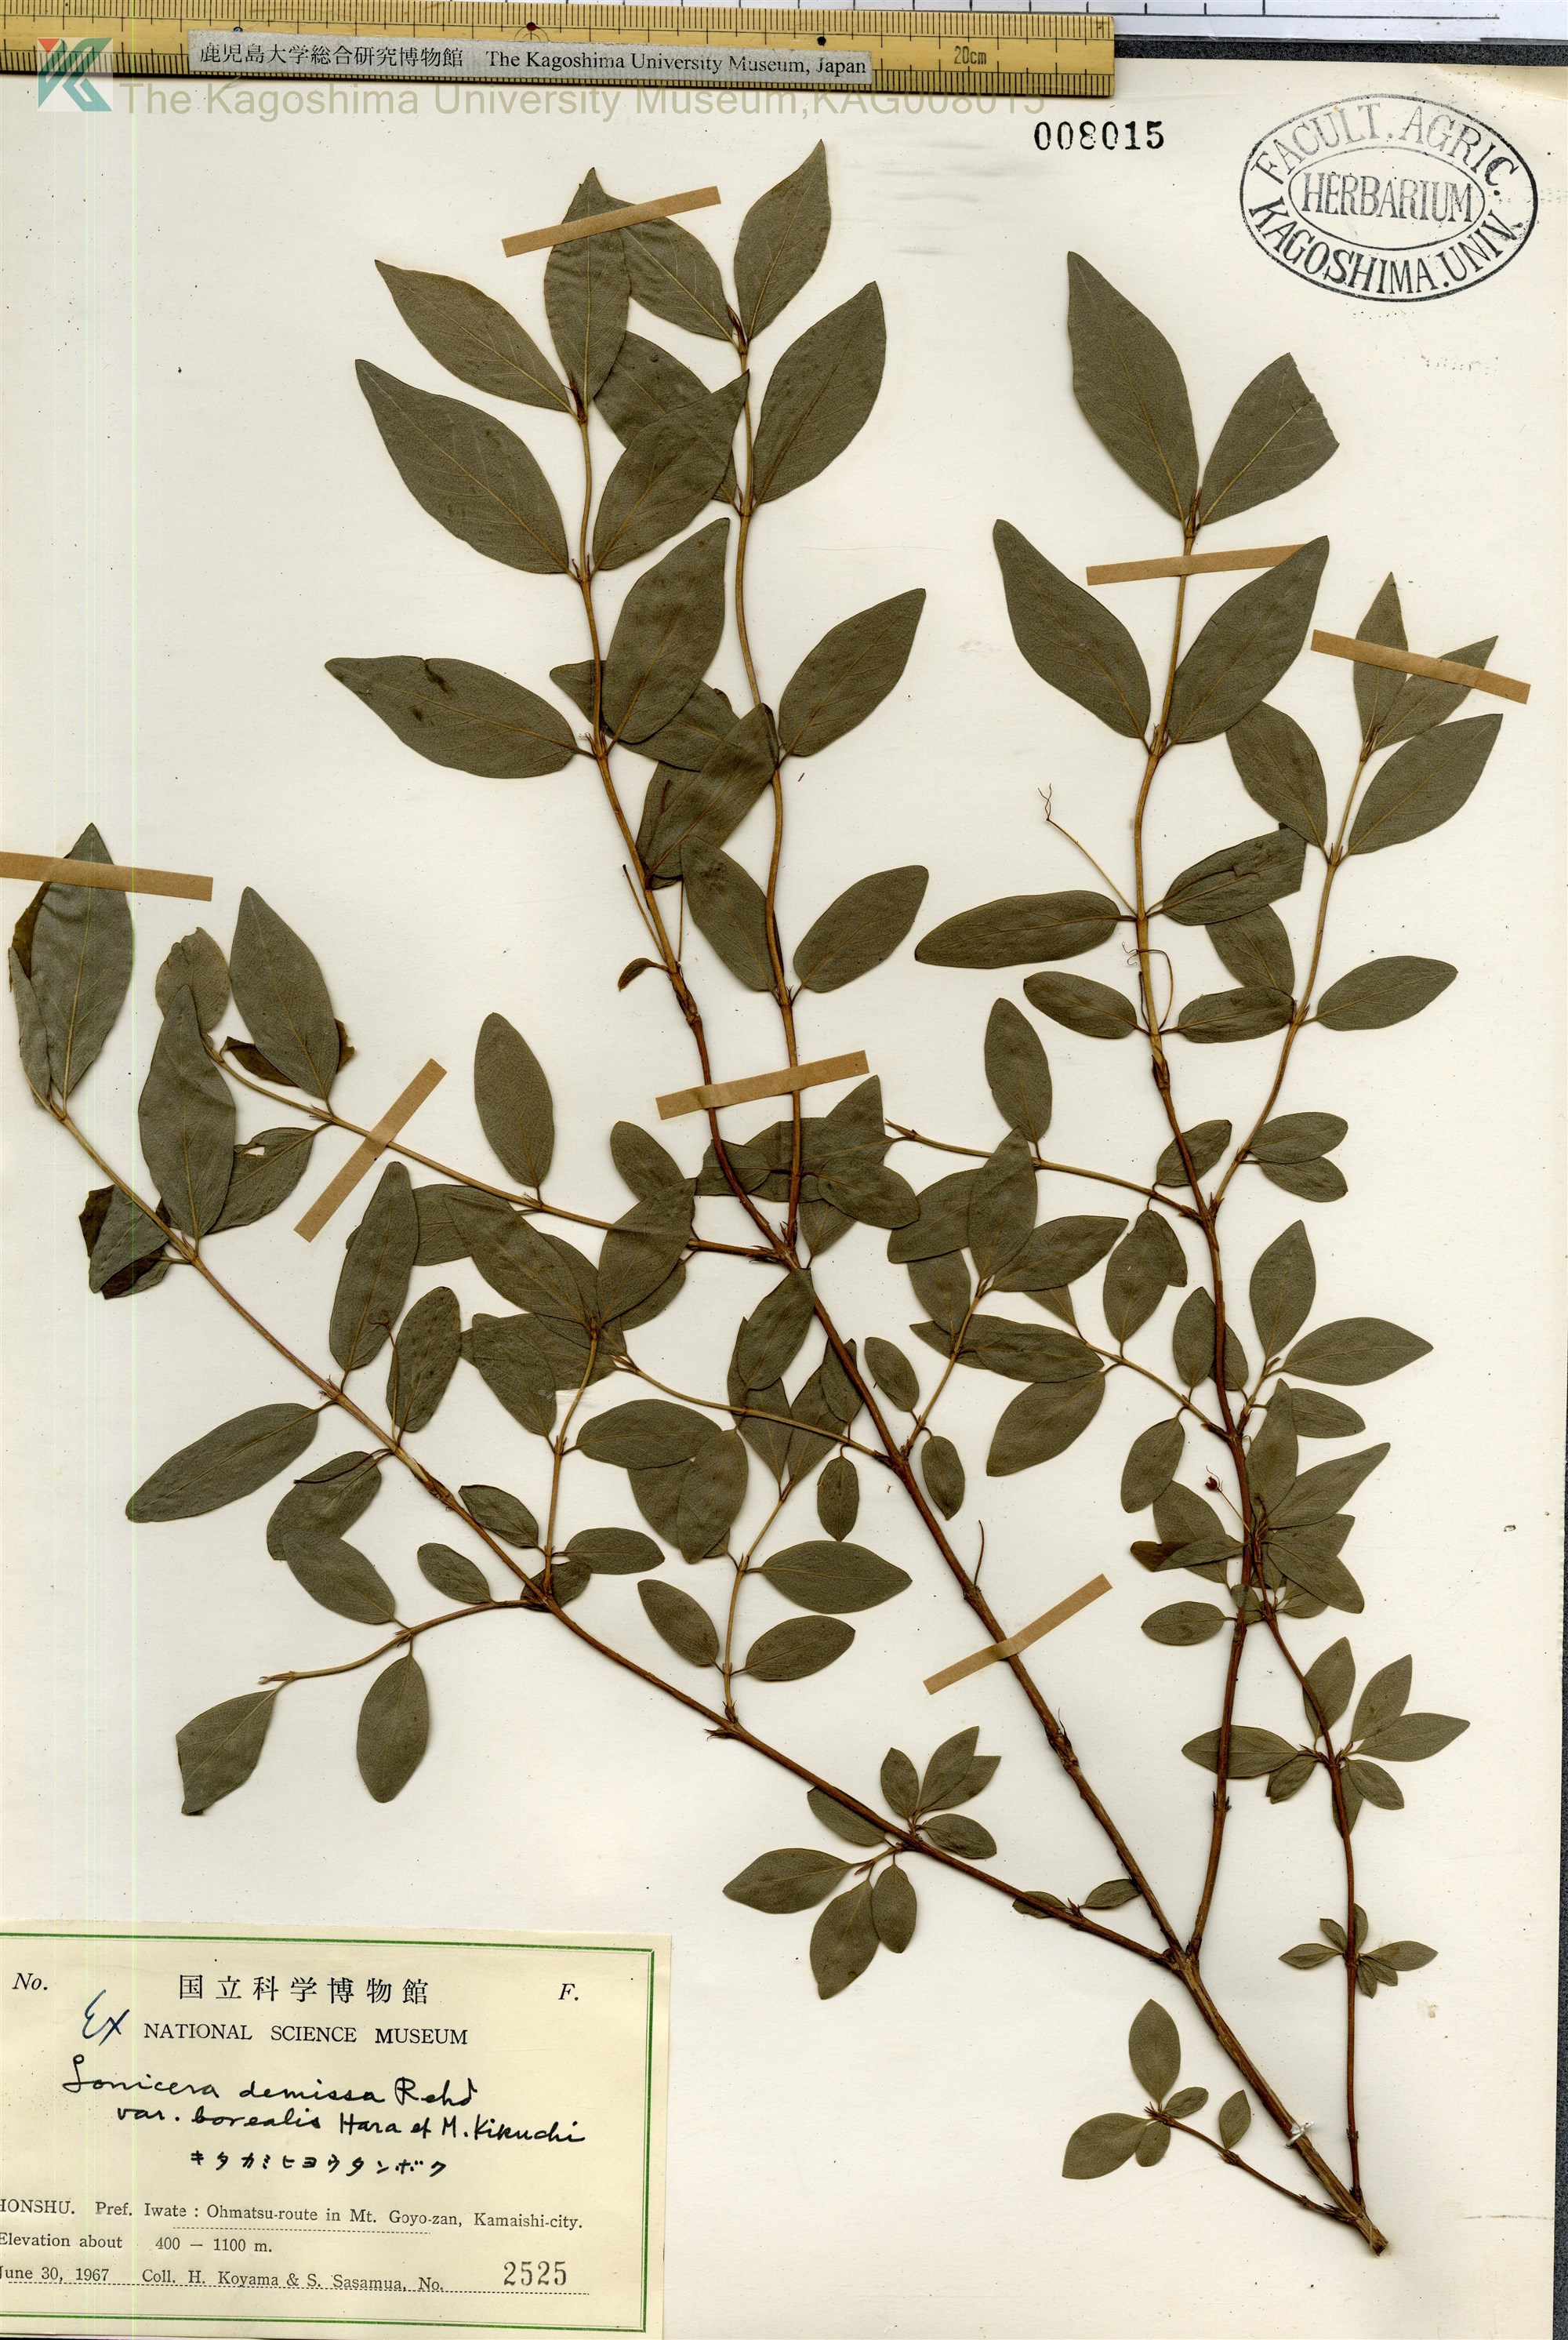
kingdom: Plantae
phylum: Tracheophyta
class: Magnoliopsida
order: Dipsacales
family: Caprifoliaceae
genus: Lonicera
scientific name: Lonicera demissa
